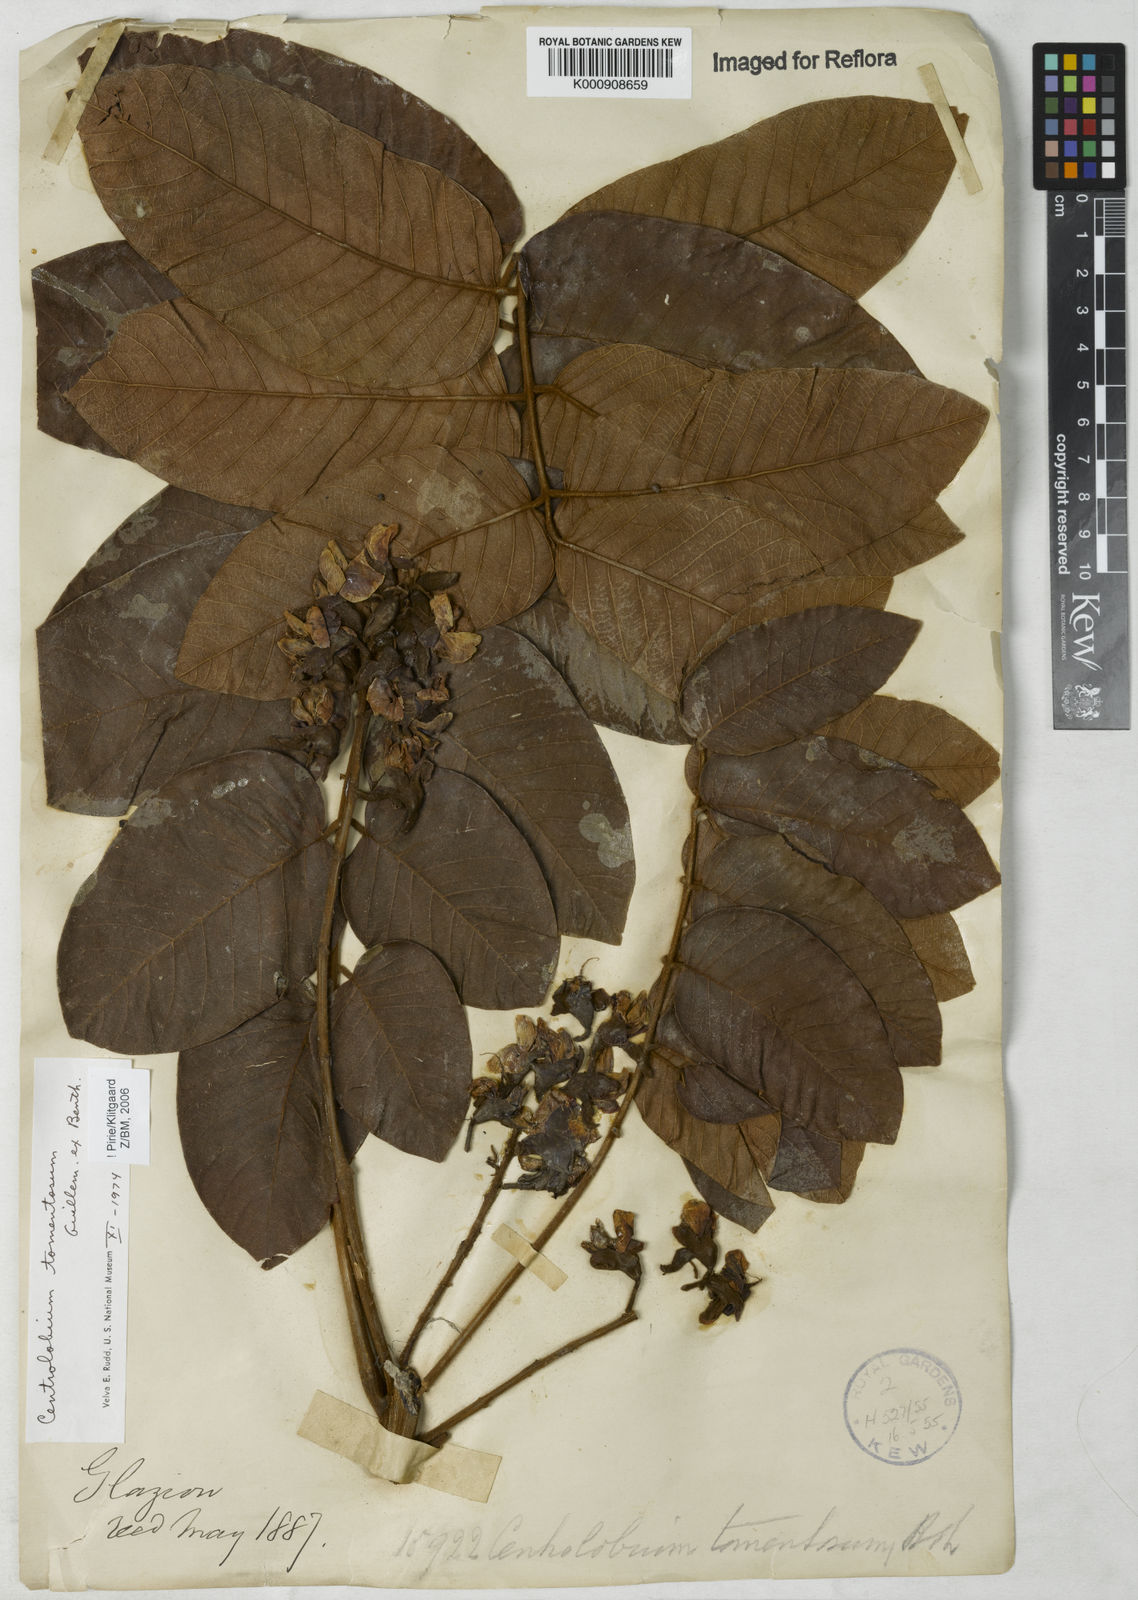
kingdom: Plantae
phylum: Tracheophyta
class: Magnoliopsida
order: Fabales
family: Fabaceae
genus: Centrolobium
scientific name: Centrolobium tomentosum
